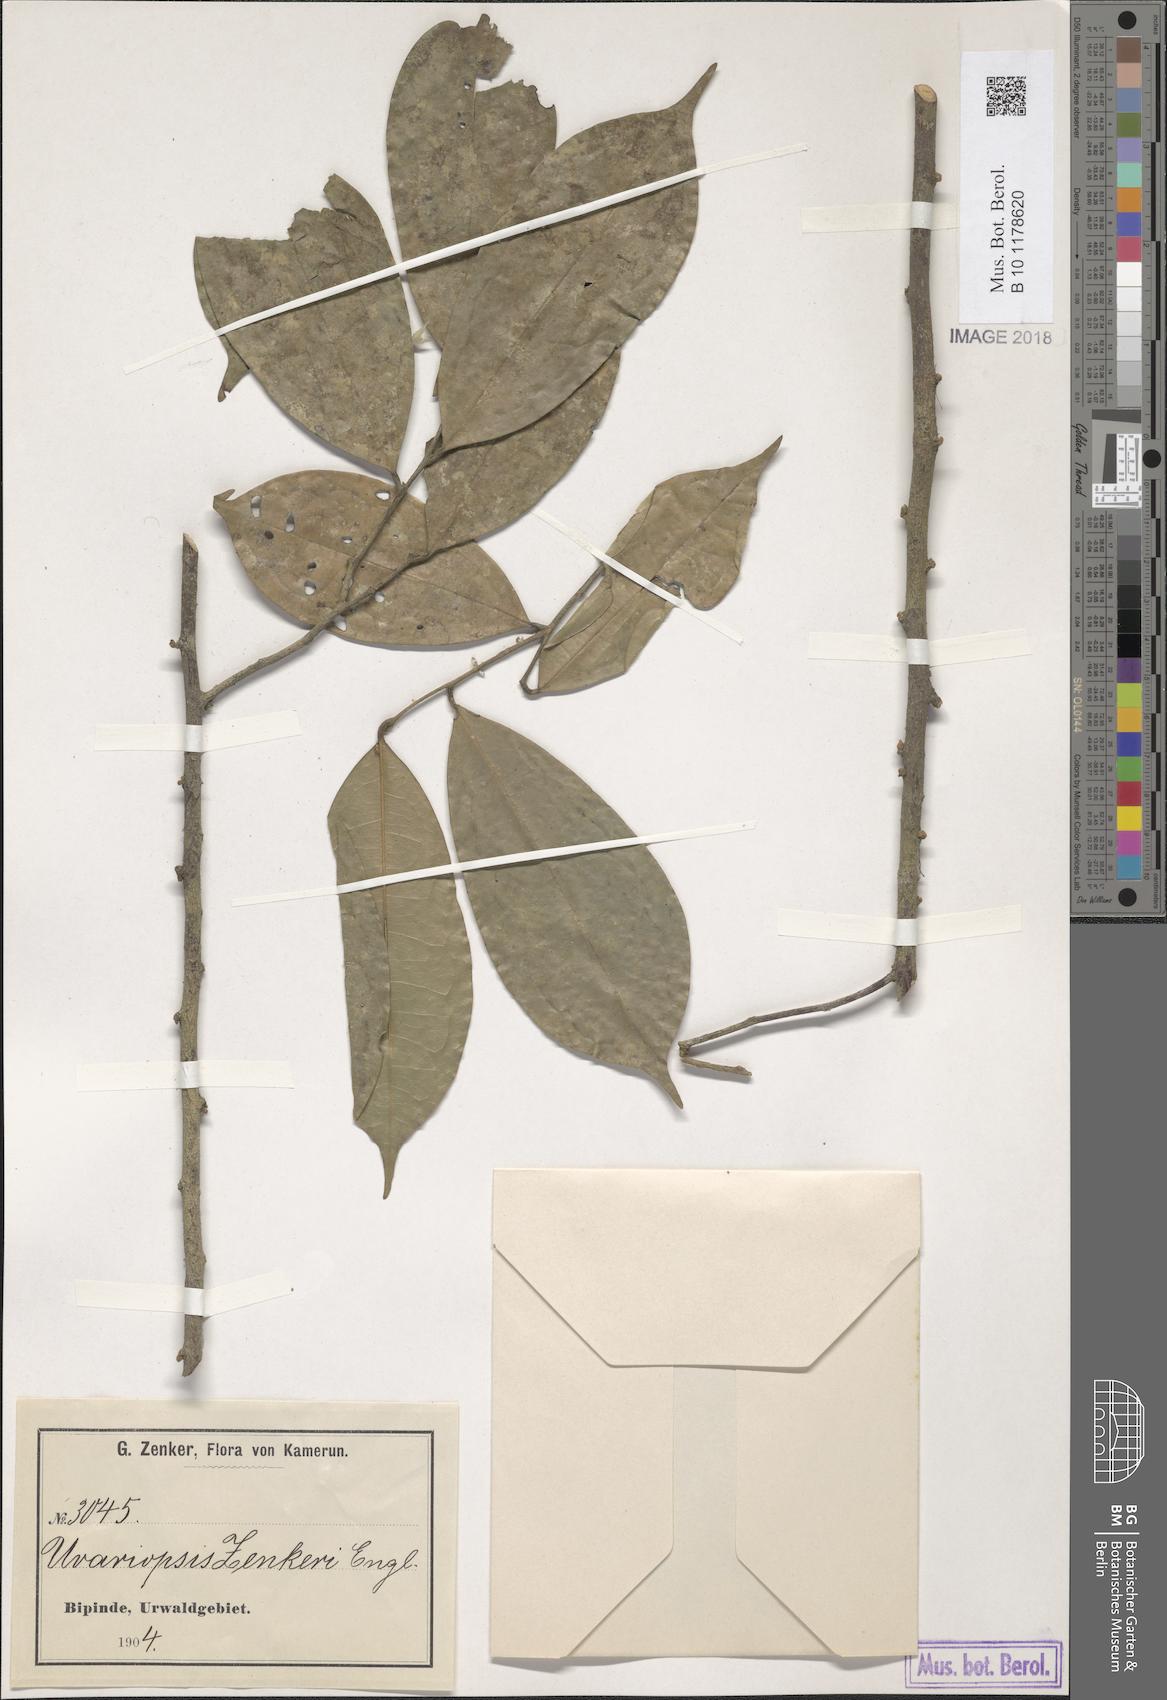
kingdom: Plantae
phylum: Tracheophyta
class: Magnoliopsida
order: Magnoliales
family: Annonaceae
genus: Uvariopsis
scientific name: Uvariopsis zenkeri
